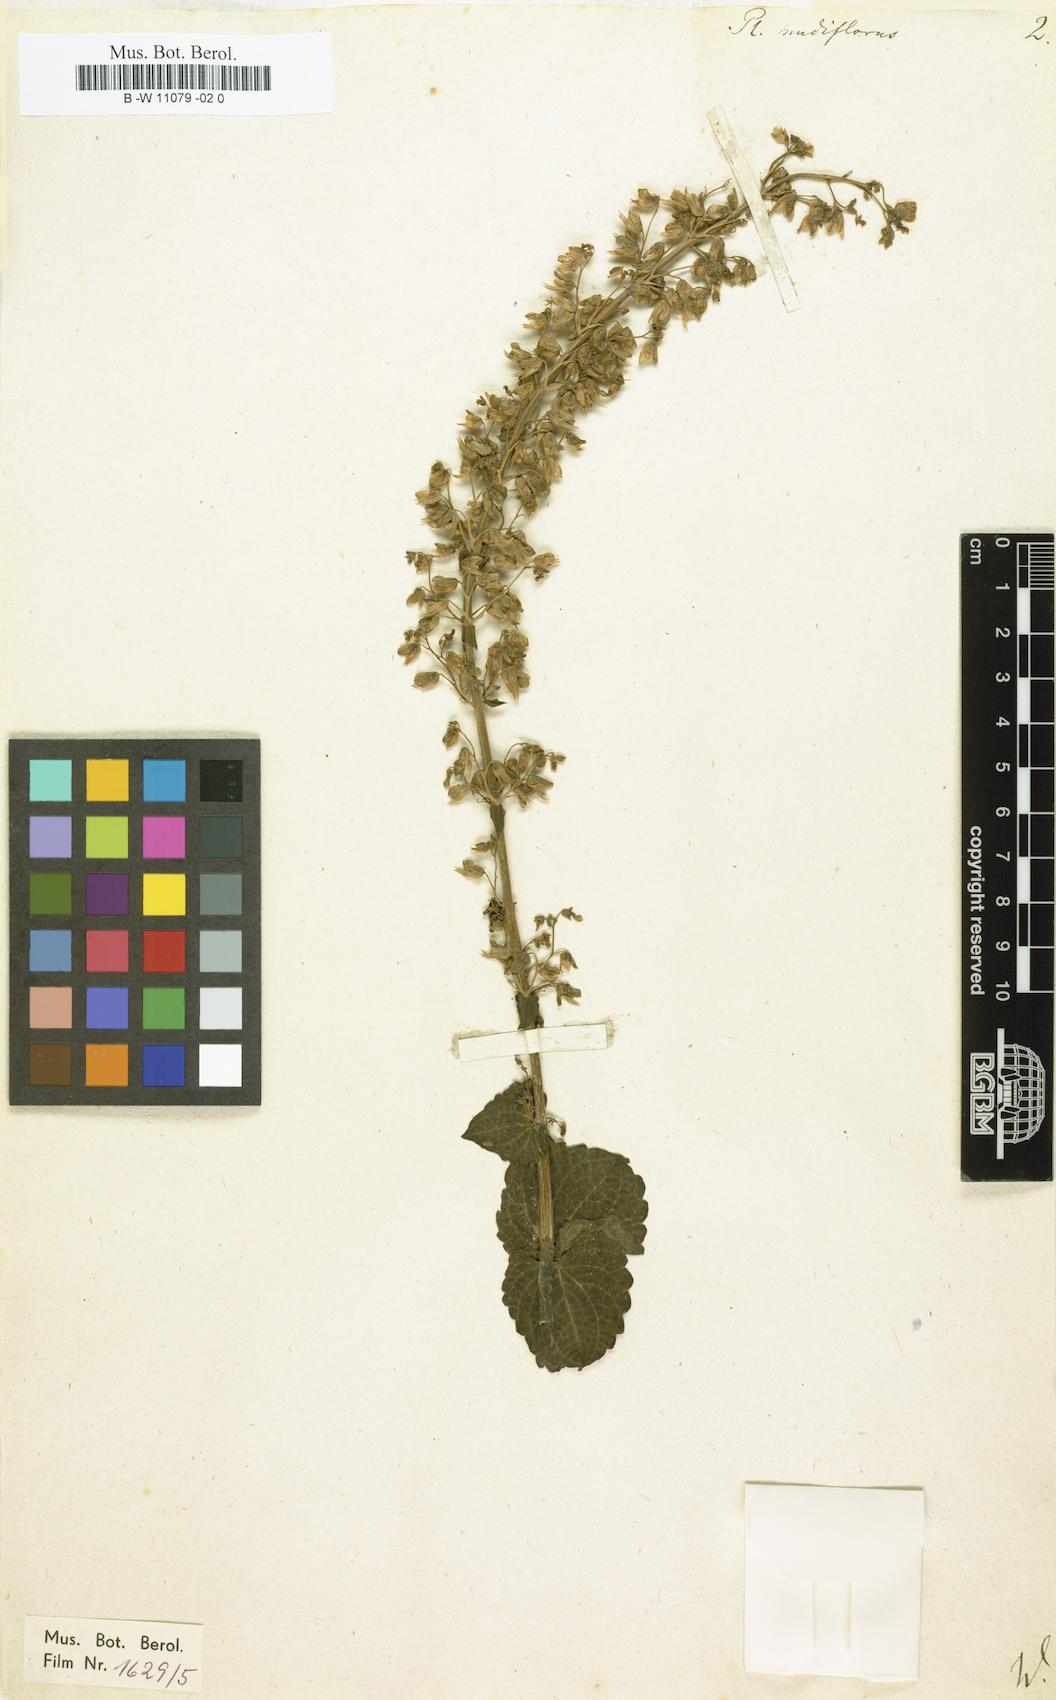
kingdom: Plantae
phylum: Tracheophyta
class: Magnoliopsida
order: Lamiales
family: Lamiaceae
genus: Coleus
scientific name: Coleus scutellarioides
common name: Coleus
